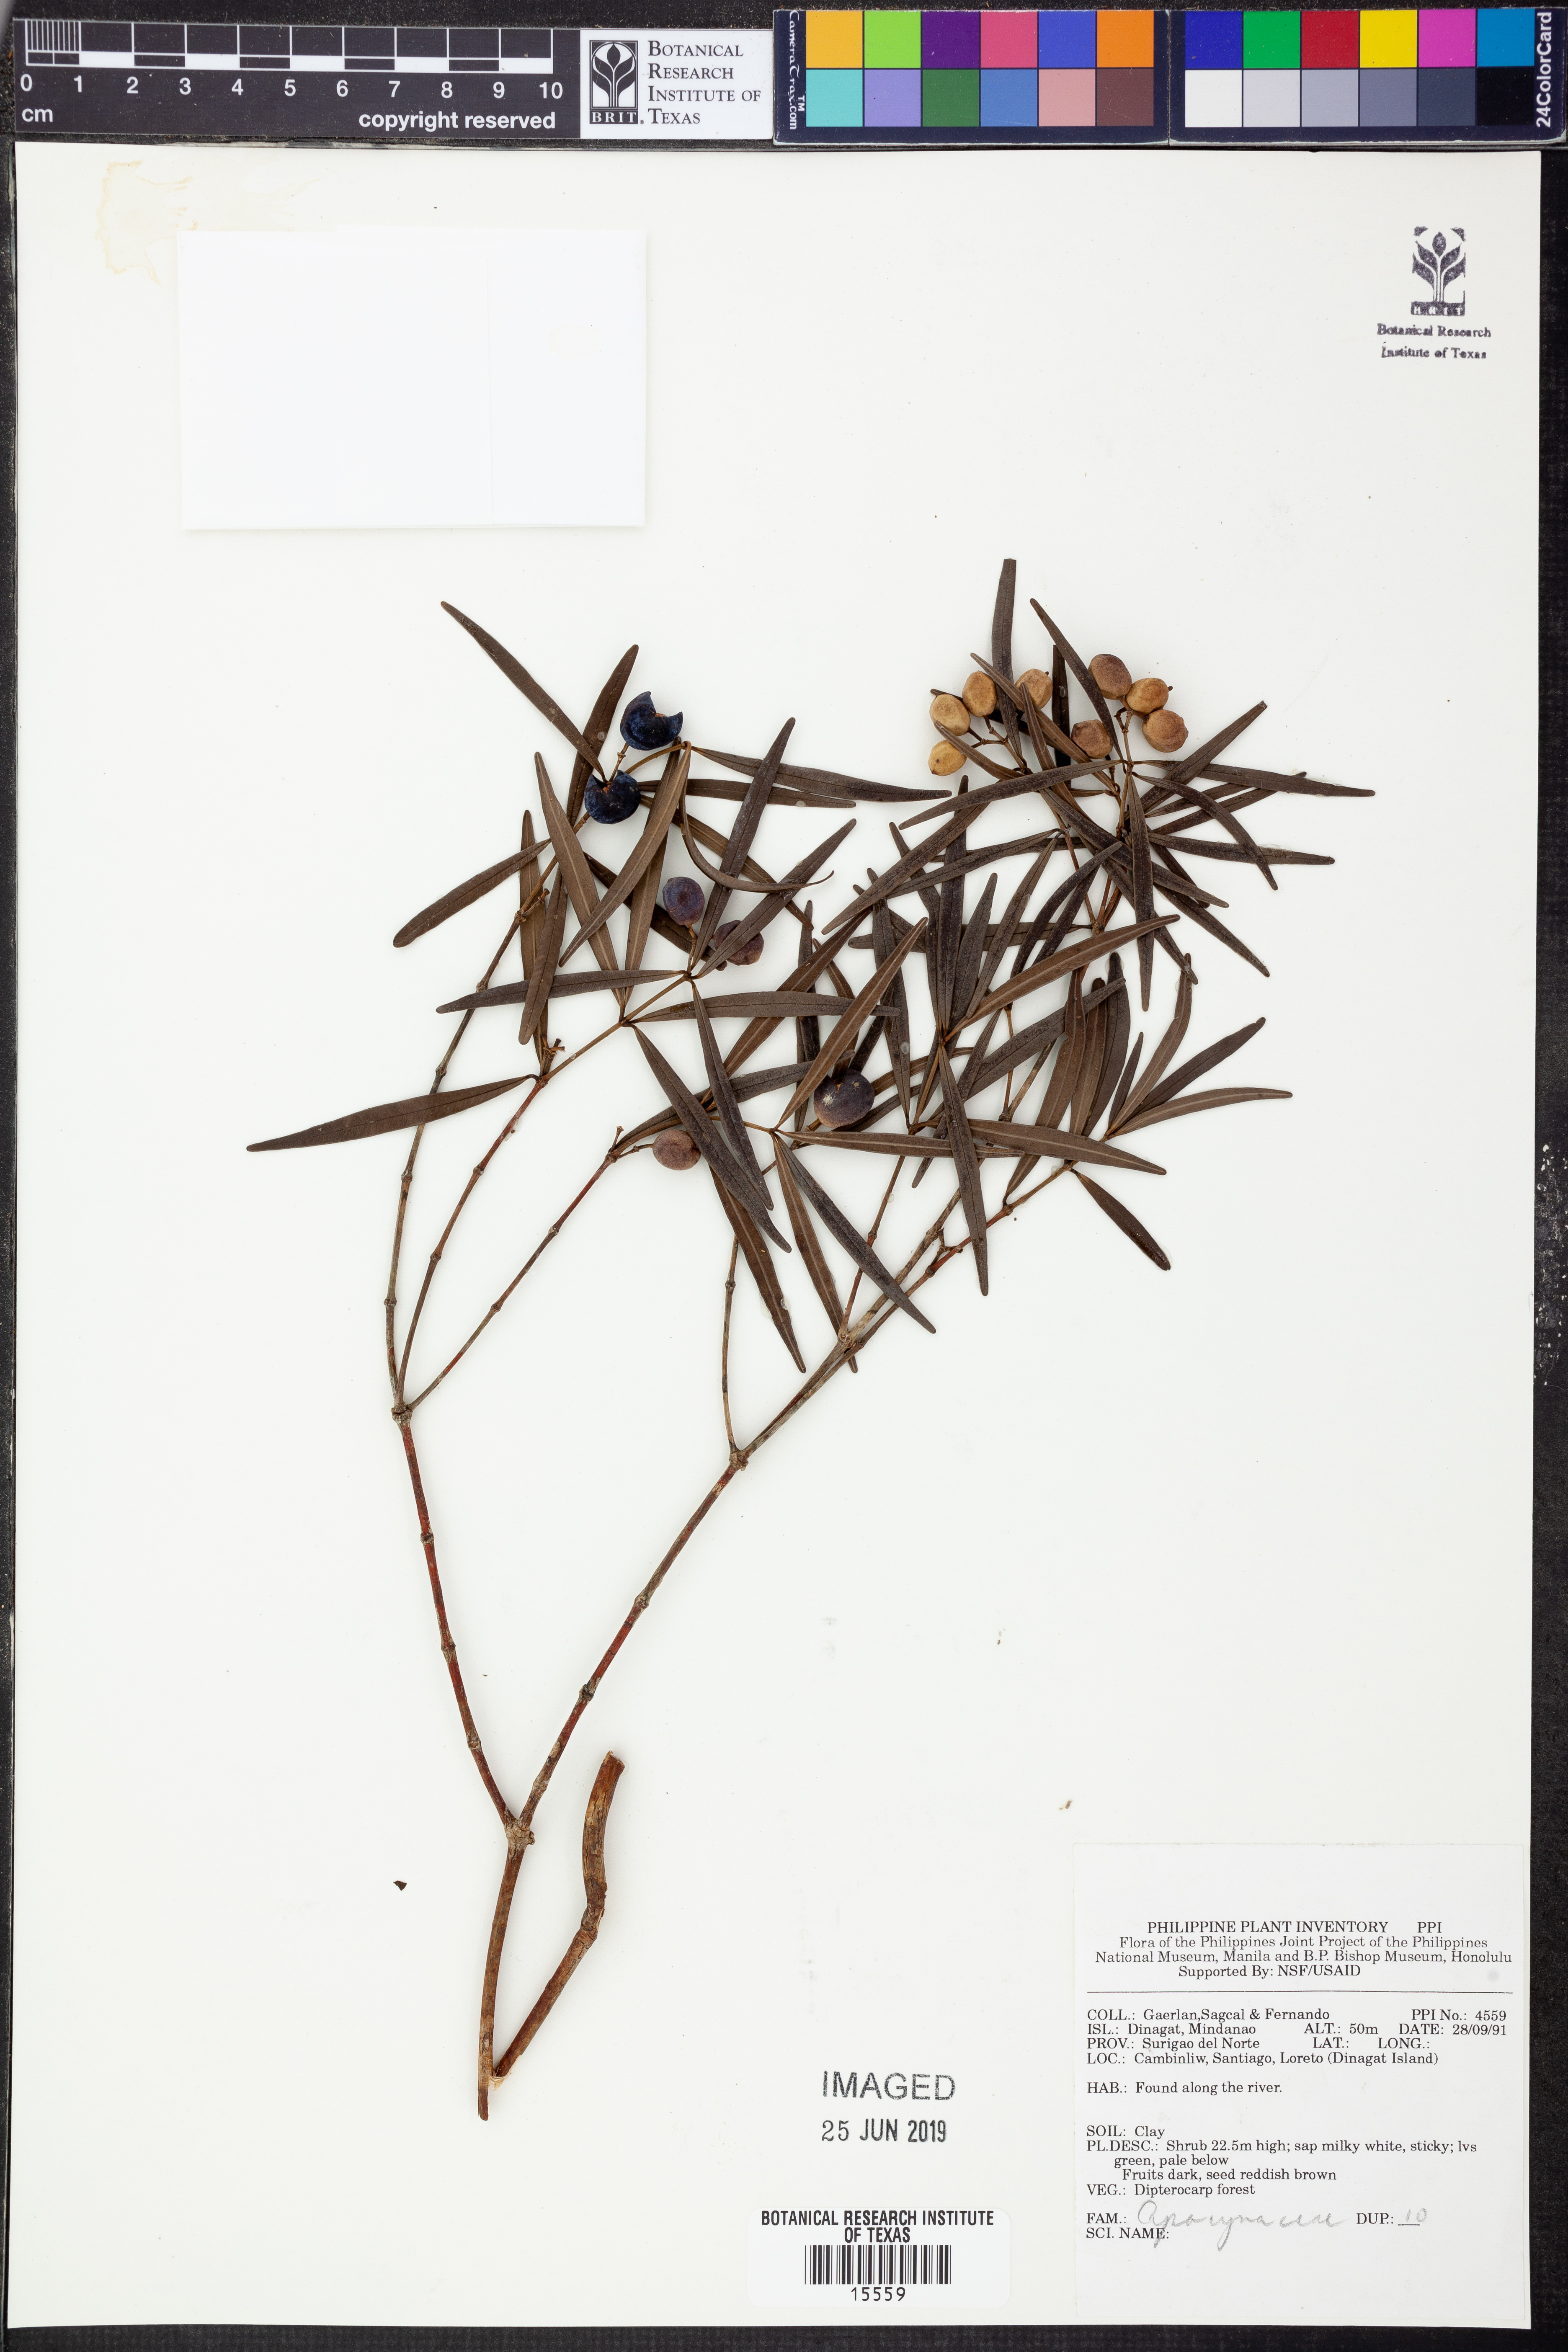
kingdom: Plantae
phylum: Tracheophyta
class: Magnoliopsida
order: Gentianales
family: Apocynaceae
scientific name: Apocynaceae
